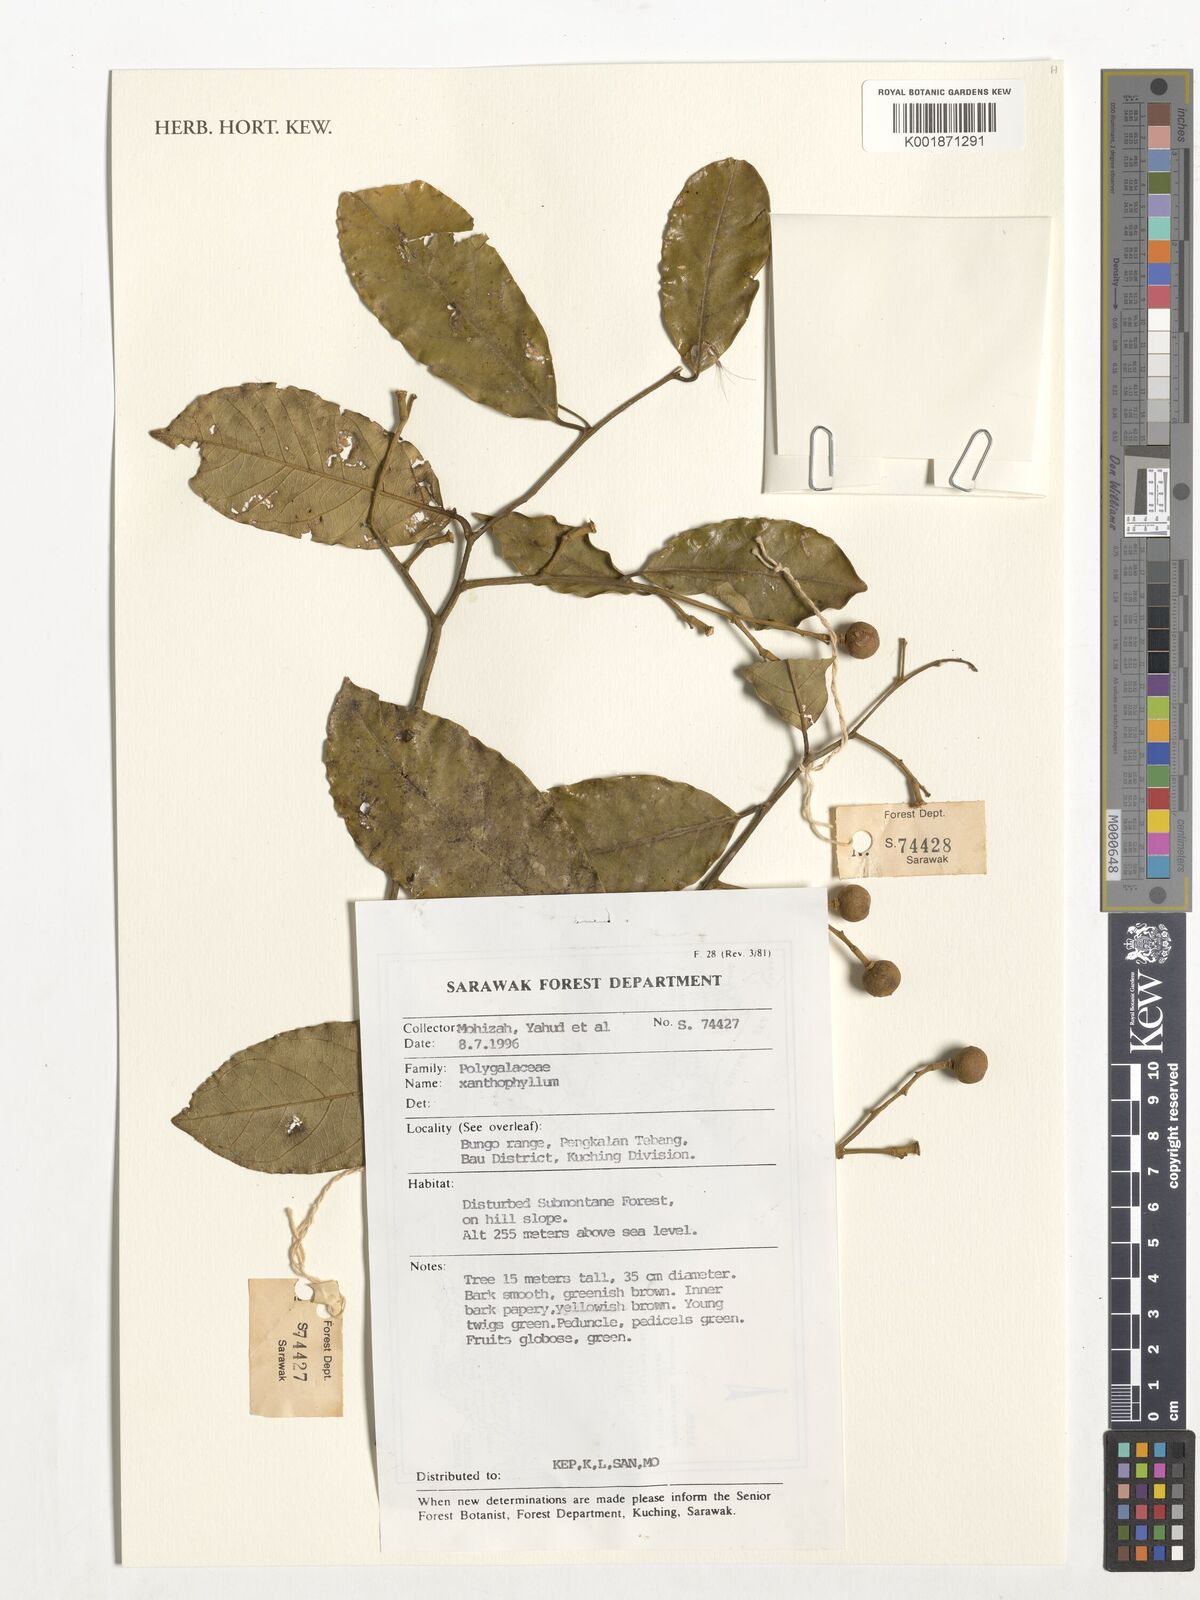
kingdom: Plantae
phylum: Tracheophyta
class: Magnoliopsida
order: Fabales
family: Polygalaceae
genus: Xanthophyllum
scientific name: Xanthophyllum
